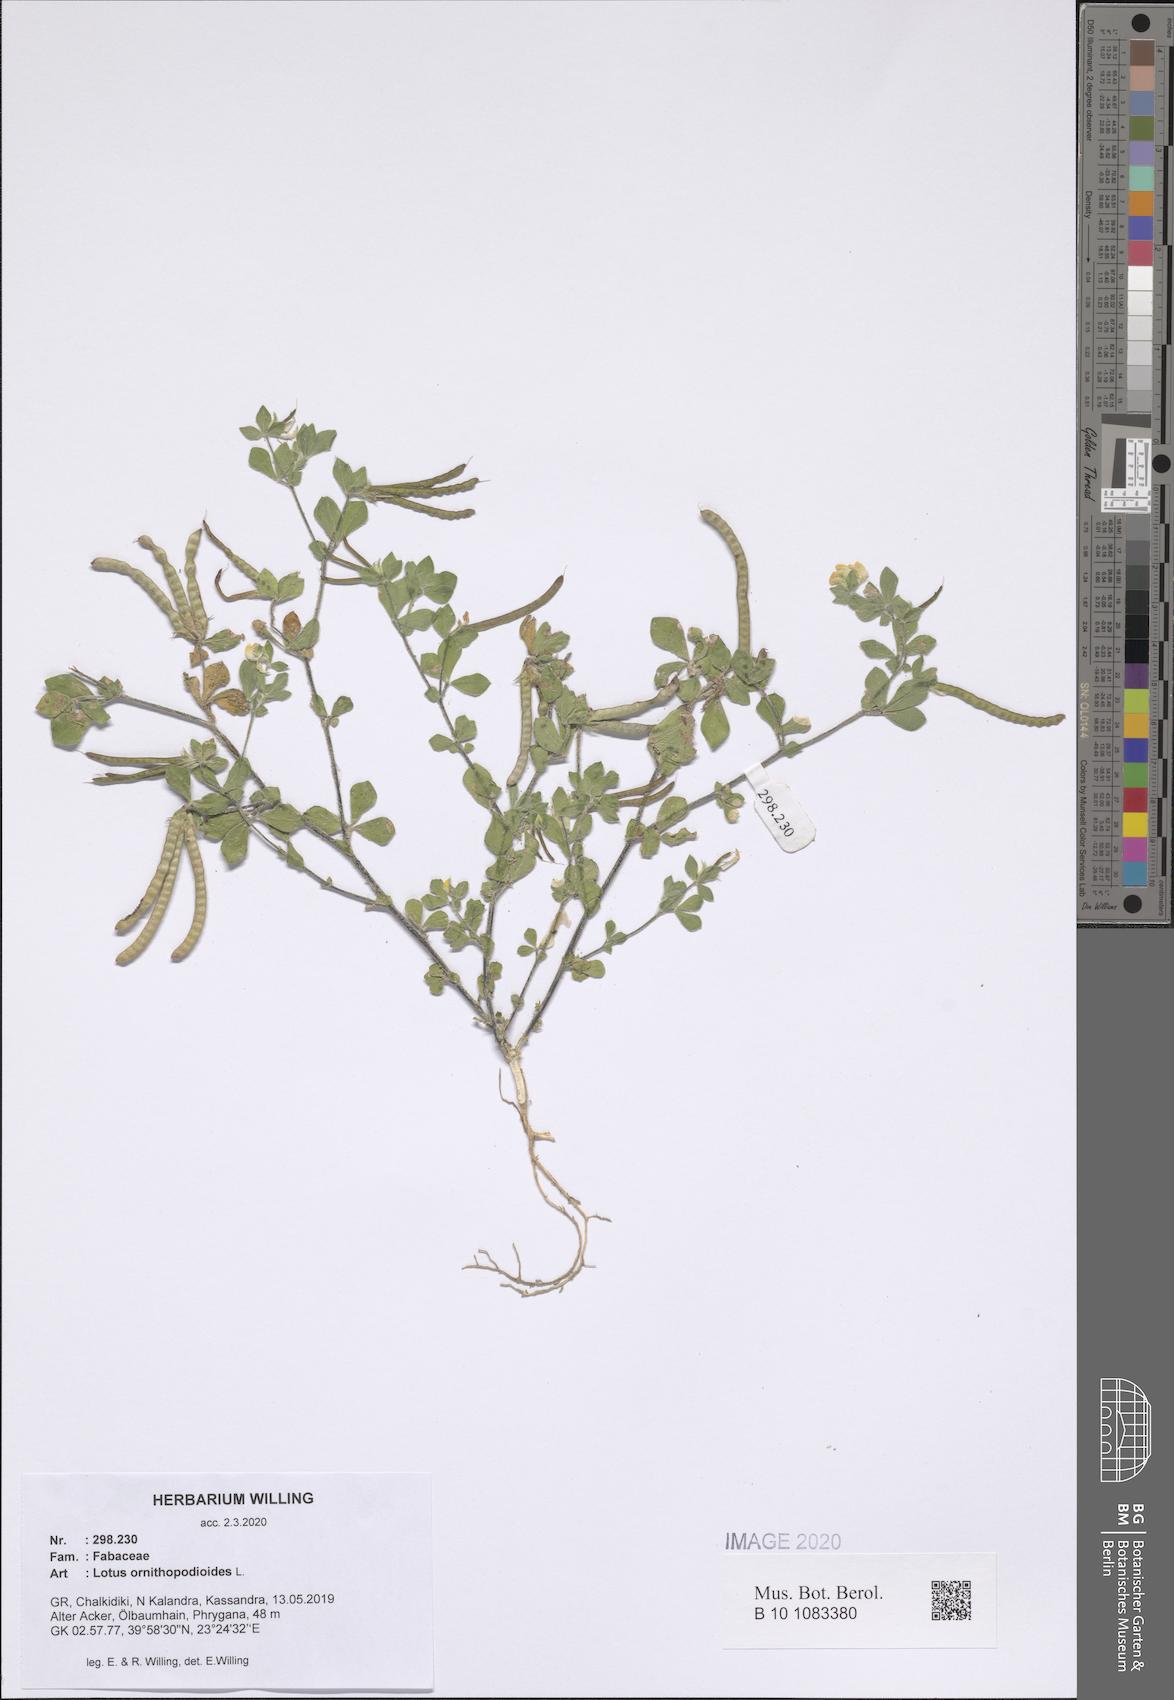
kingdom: Plantae
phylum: Tracheophyta
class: Magnoliopsida
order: Fabales
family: Fabaceae
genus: Lotus
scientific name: Lotus ornithopodioides
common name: Southern bird's-foot trefoil
